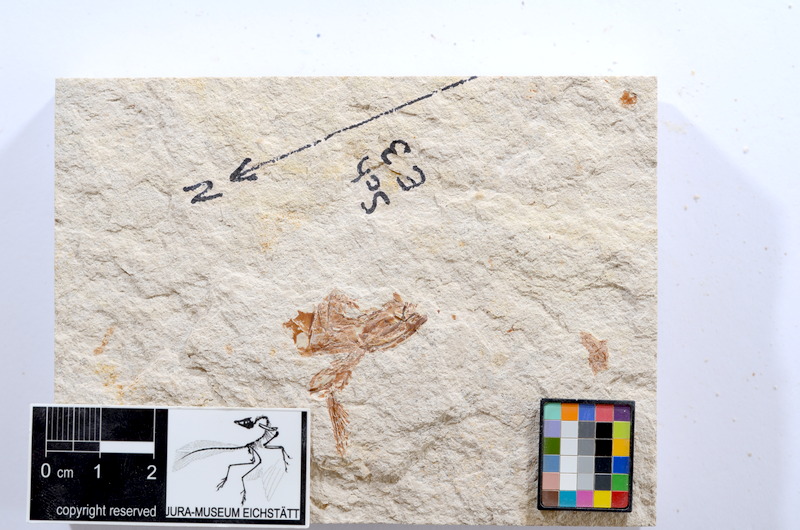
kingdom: Animalia
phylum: Chordata
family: Ascalaboidae
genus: Tharsis
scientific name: Tharsis dubius
